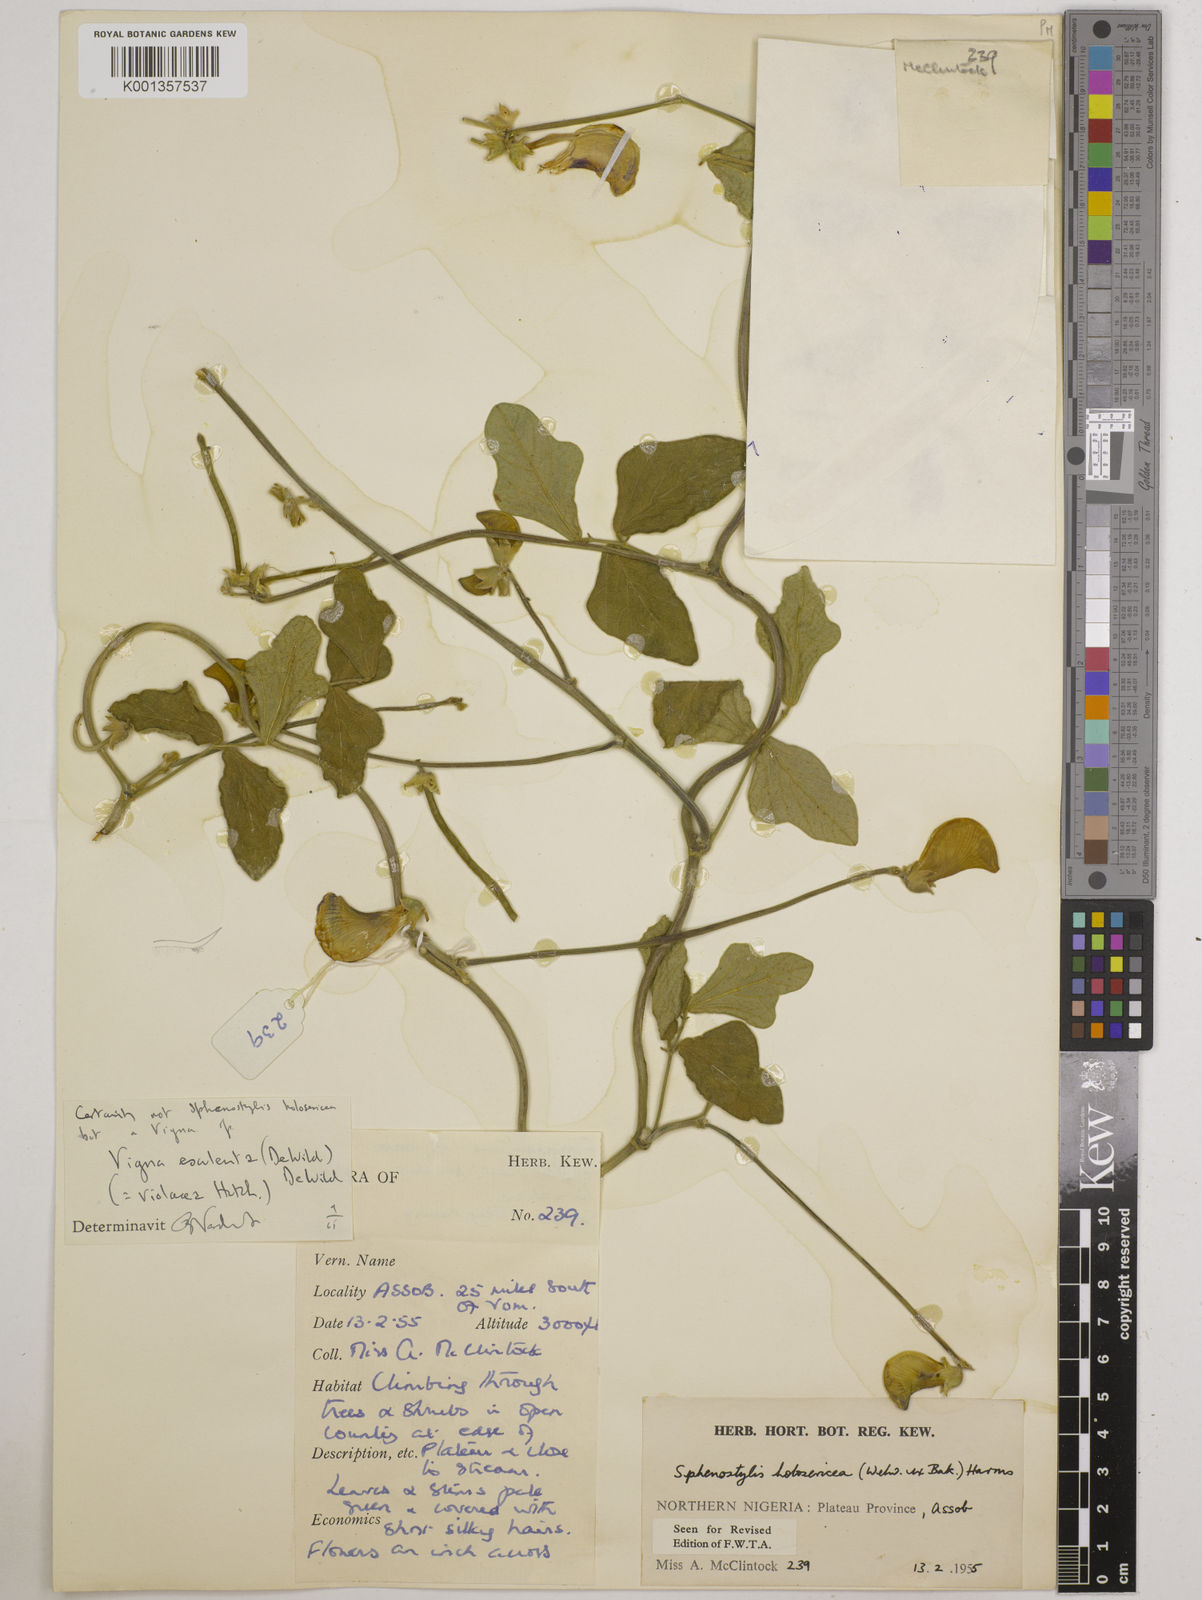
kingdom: Plantae
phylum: Tracheophyta
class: Magnoliopsida
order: Fabales
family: Fabaceae
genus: Vigna
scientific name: Vigna frutescens
